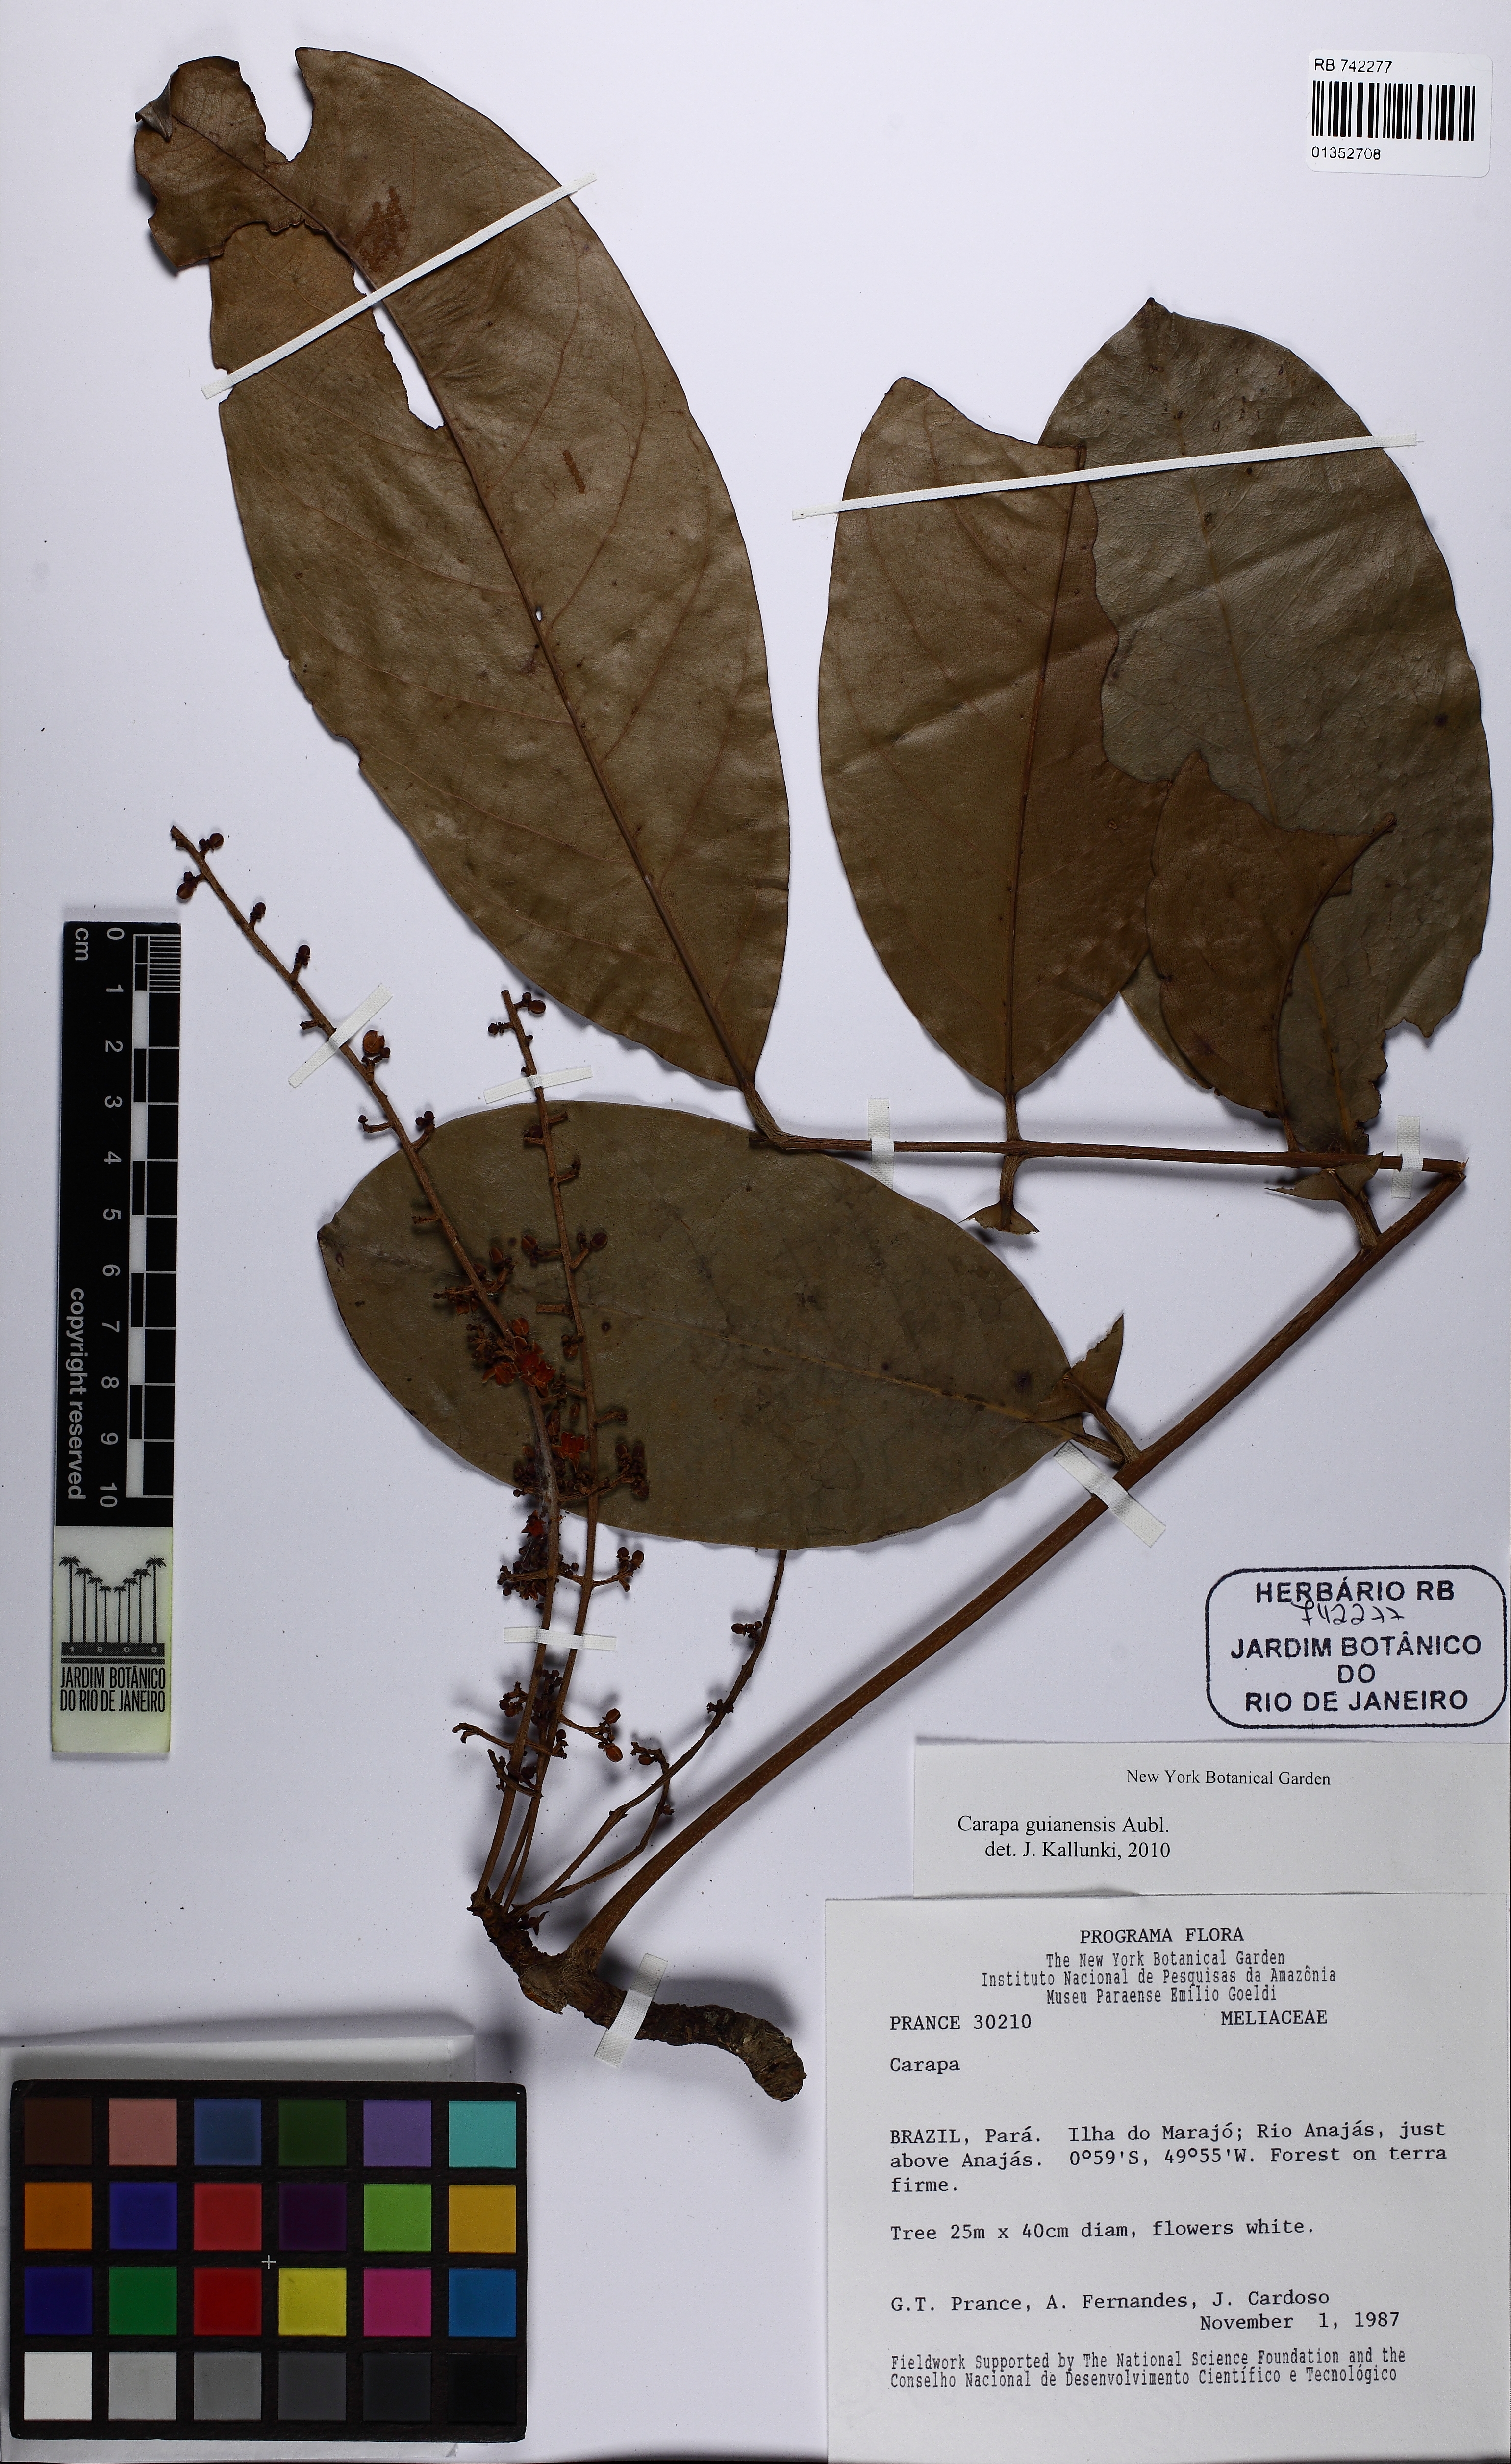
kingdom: Plantae
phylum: Tracheophyta
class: Magnoliopsida
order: Sapindales
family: Meliaceae
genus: Carapa
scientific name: Carapa guianensis
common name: Crabwood
